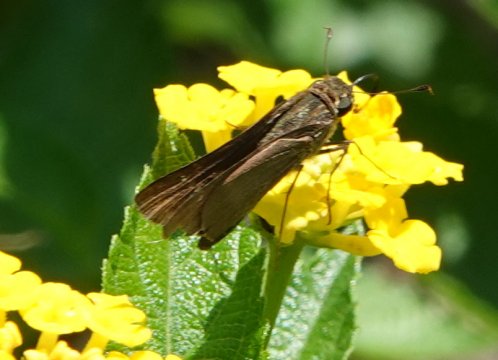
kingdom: Animalia
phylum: Arthropoda
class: Insecta
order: Lepidoptera
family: Hesperiidae
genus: Panoquina
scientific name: Panoquina ocola
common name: Ocola Skipper
